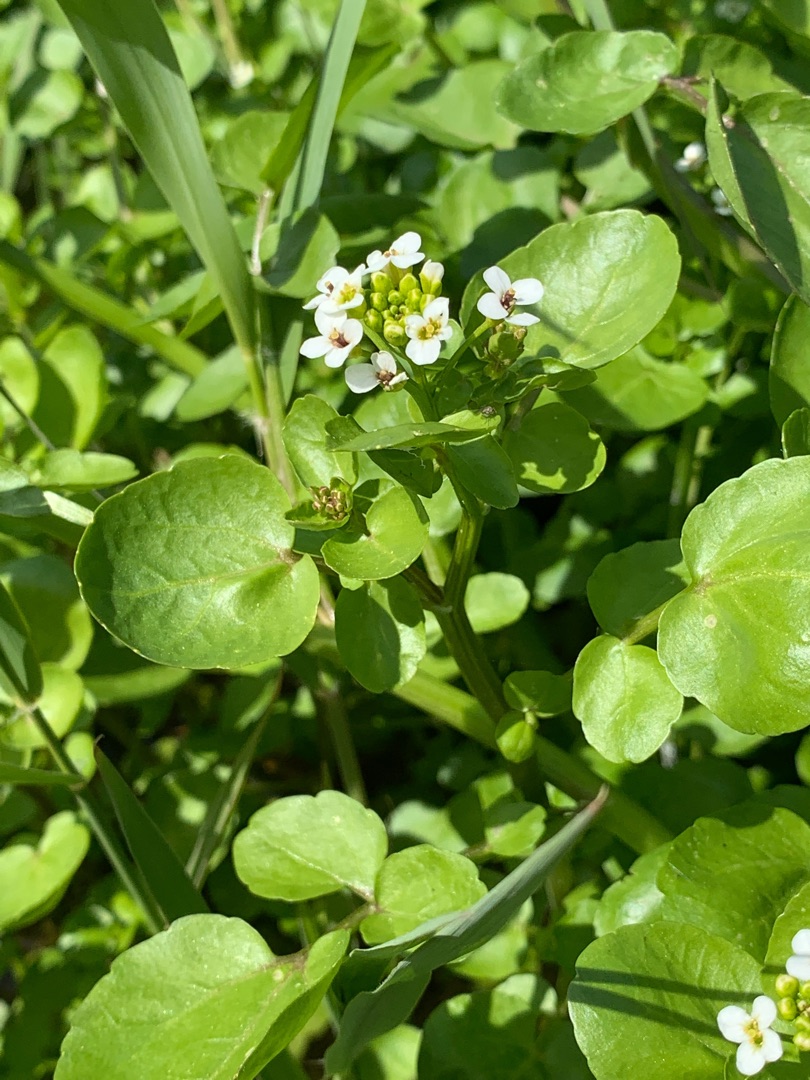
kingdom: Plantae
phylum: Tracheophyta
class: Magnoliopsida
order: Brassicales
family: Brassicaceae
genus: Nasturtium
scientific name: Nasturtium
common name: Brøndkarseslægten
